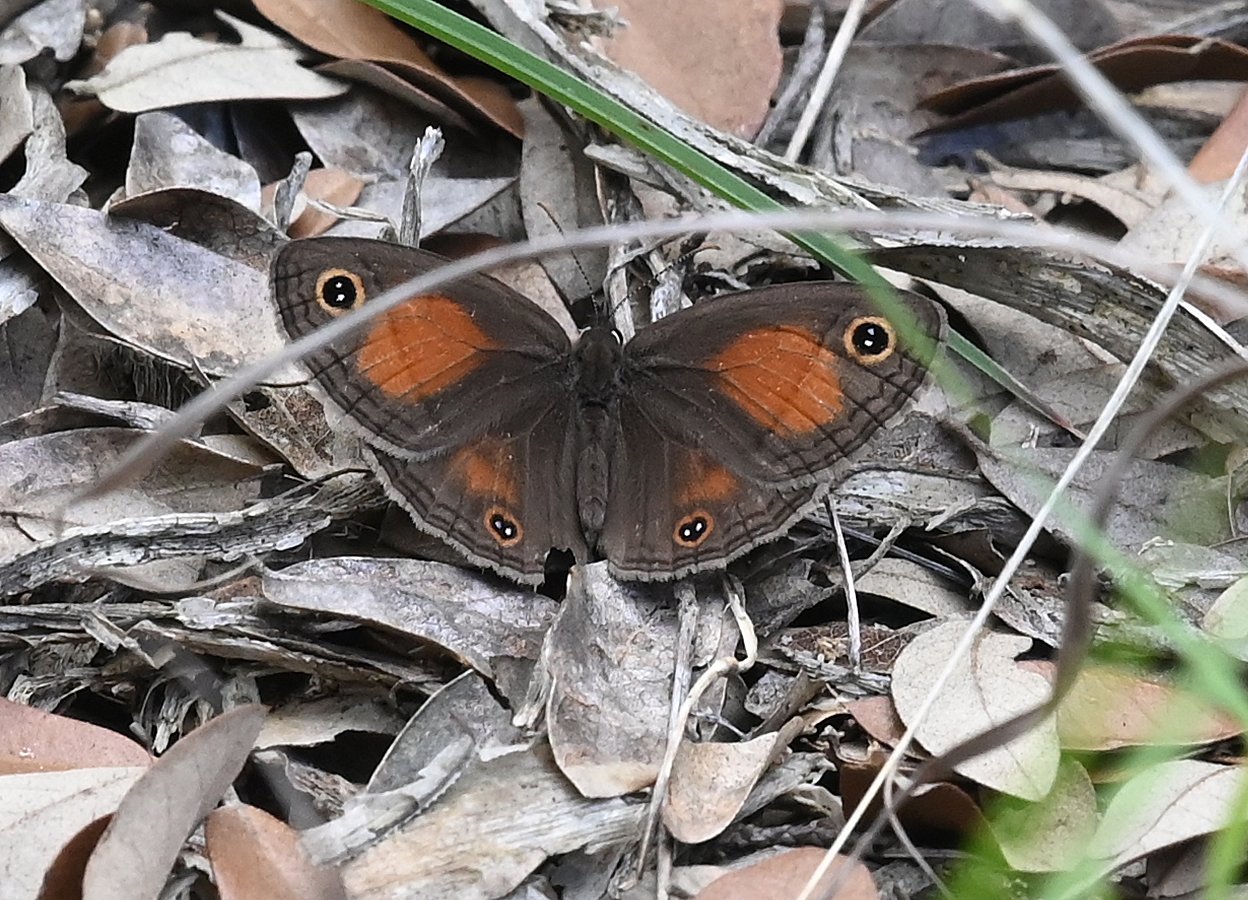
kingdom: Animalia
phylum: Arthropoda
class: Insecta
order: Lepidoptera
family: Nymphalidae
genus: Euptychia
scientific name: Euptychia rubricata
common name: Red Satyr
